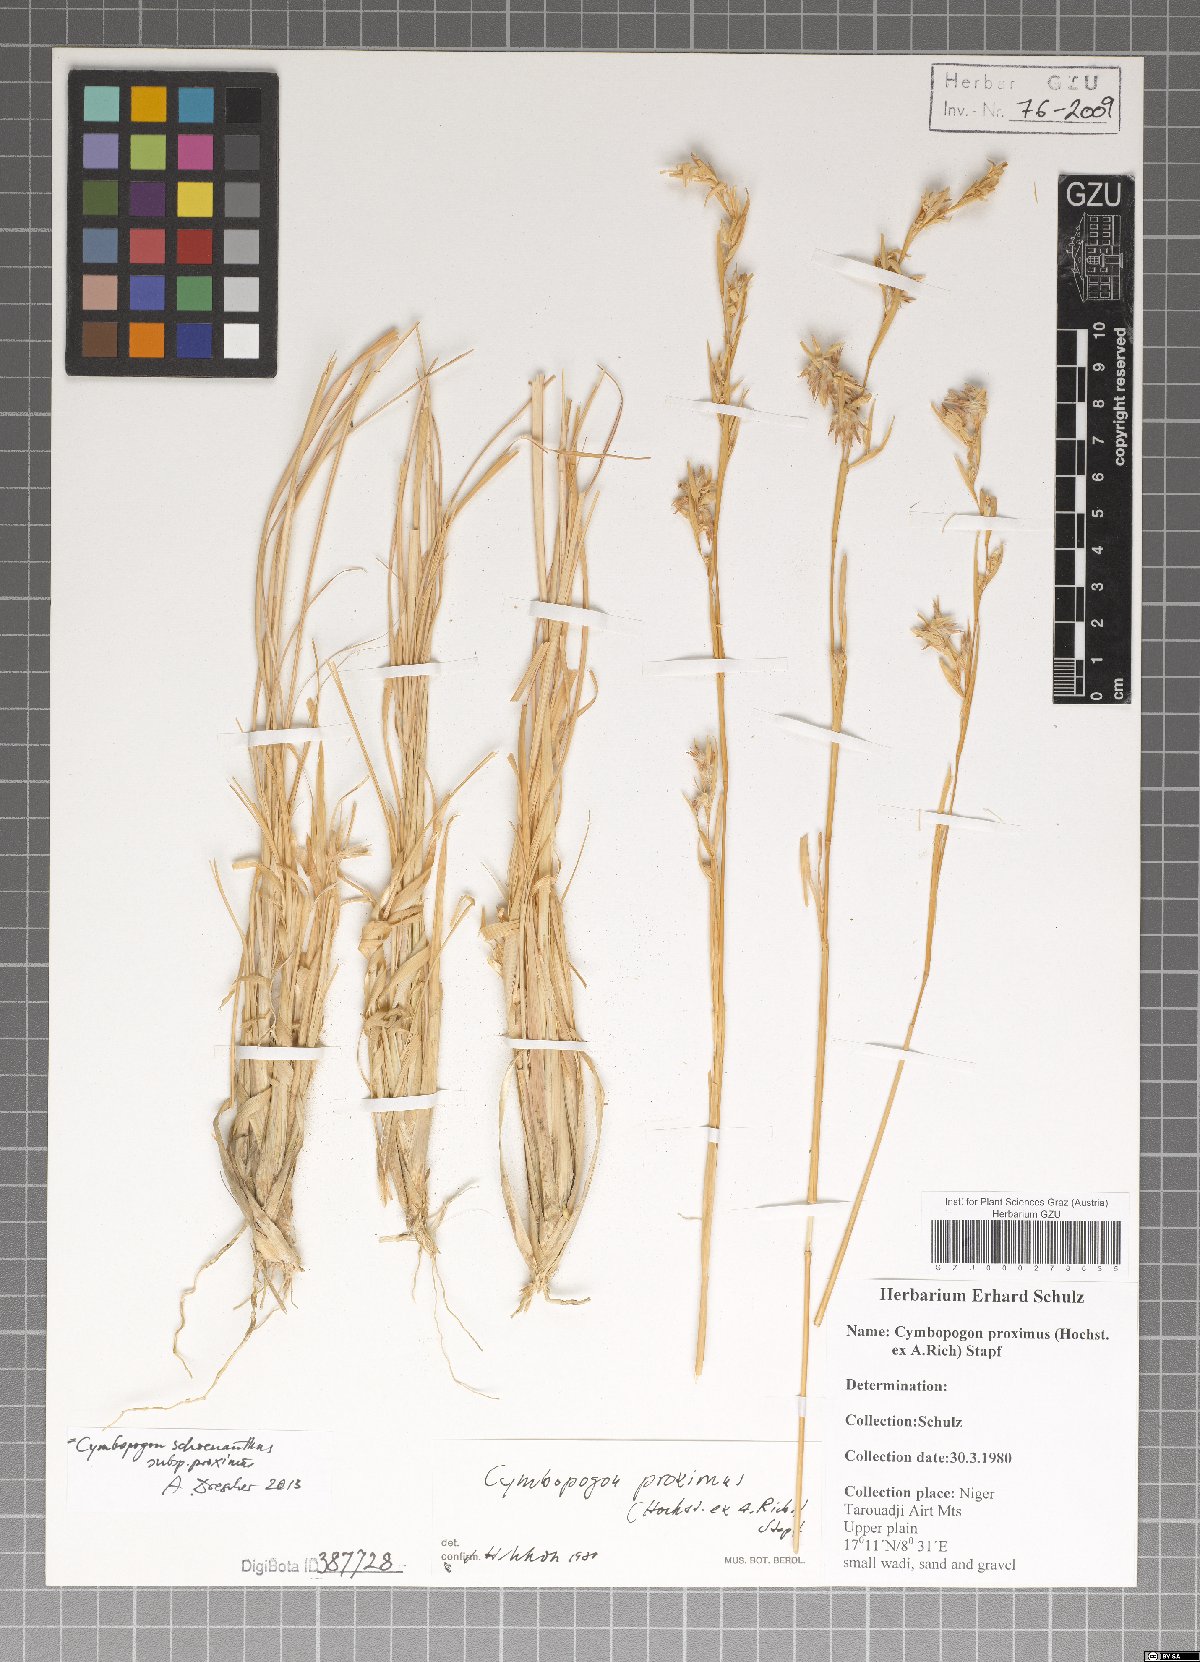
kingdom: Plantae
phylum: Tracheophyta
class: Liliopsida
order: Poales
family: Poaceae
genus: Cymbopogon
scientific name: Cymbopogon schoenanthus
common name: Geranium grass
